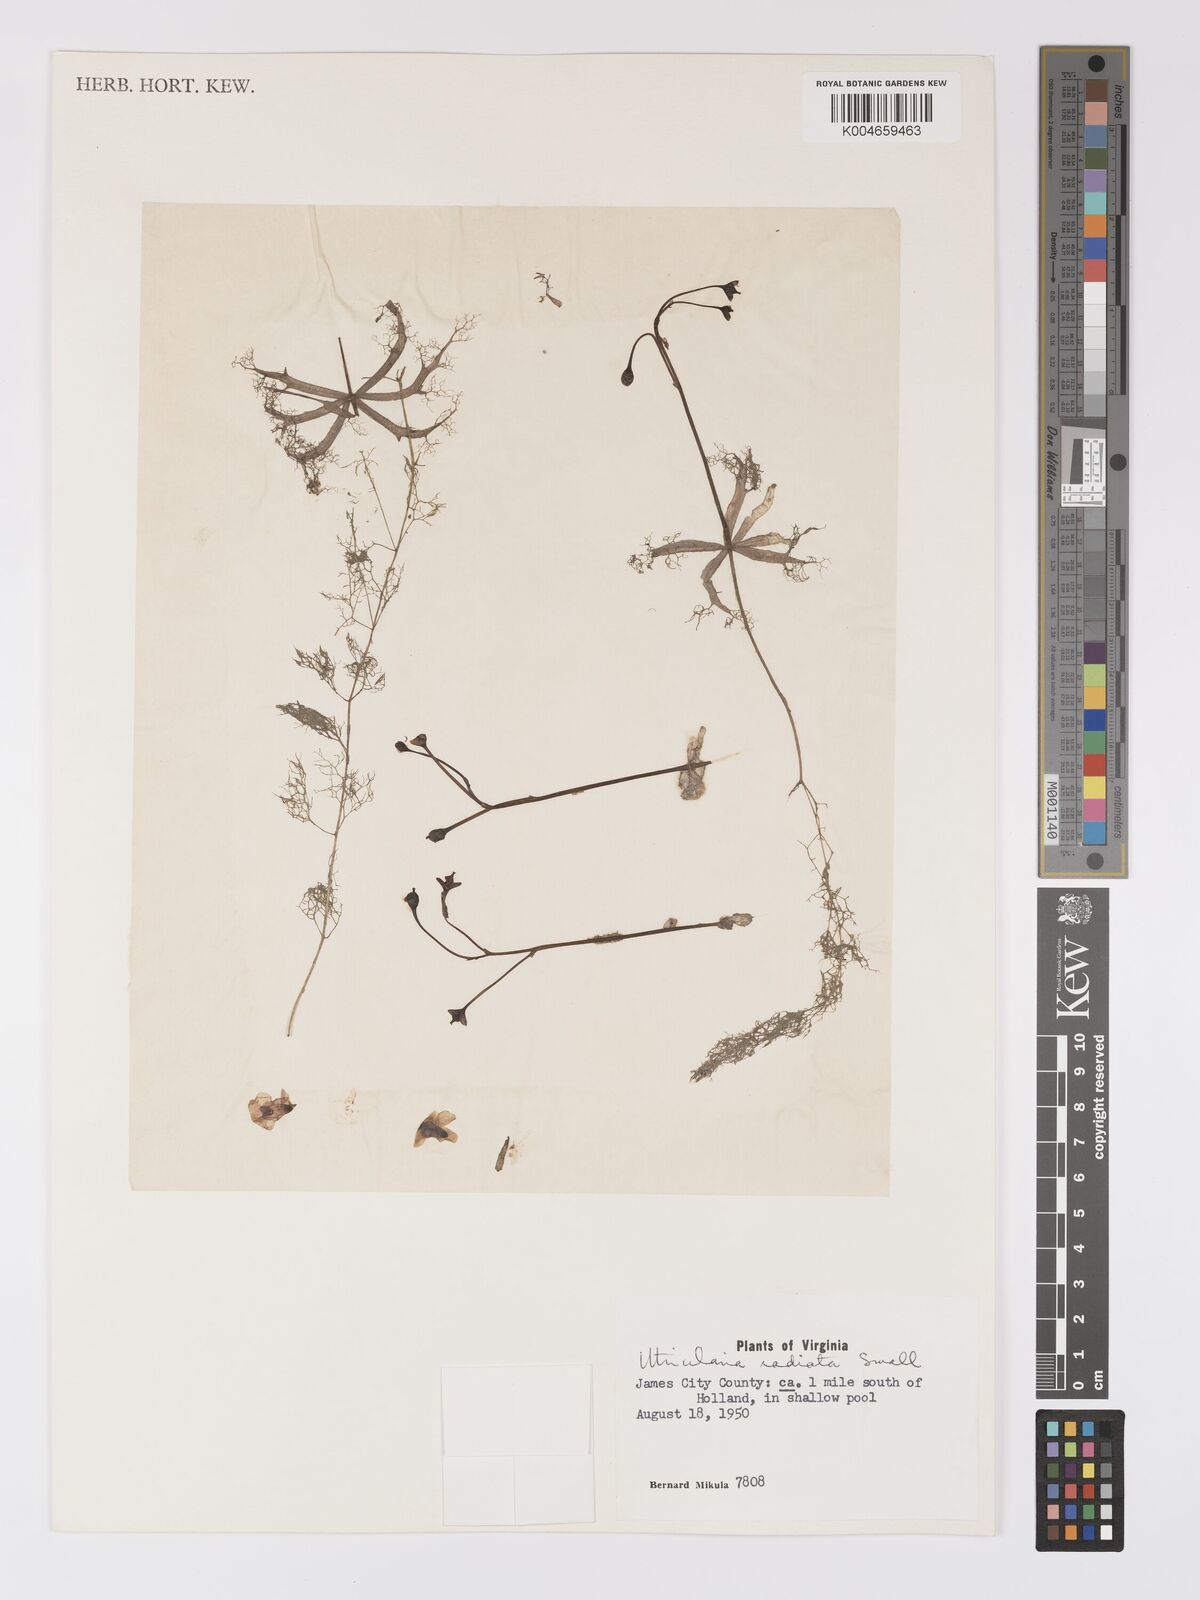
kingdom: Plantae
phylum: Tracheophyta
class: Magnoliopsida
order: Lamiales
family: Lentibulariaceae
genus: Utricularia
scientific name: Utricularia radiata
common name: Floating bladderwort
